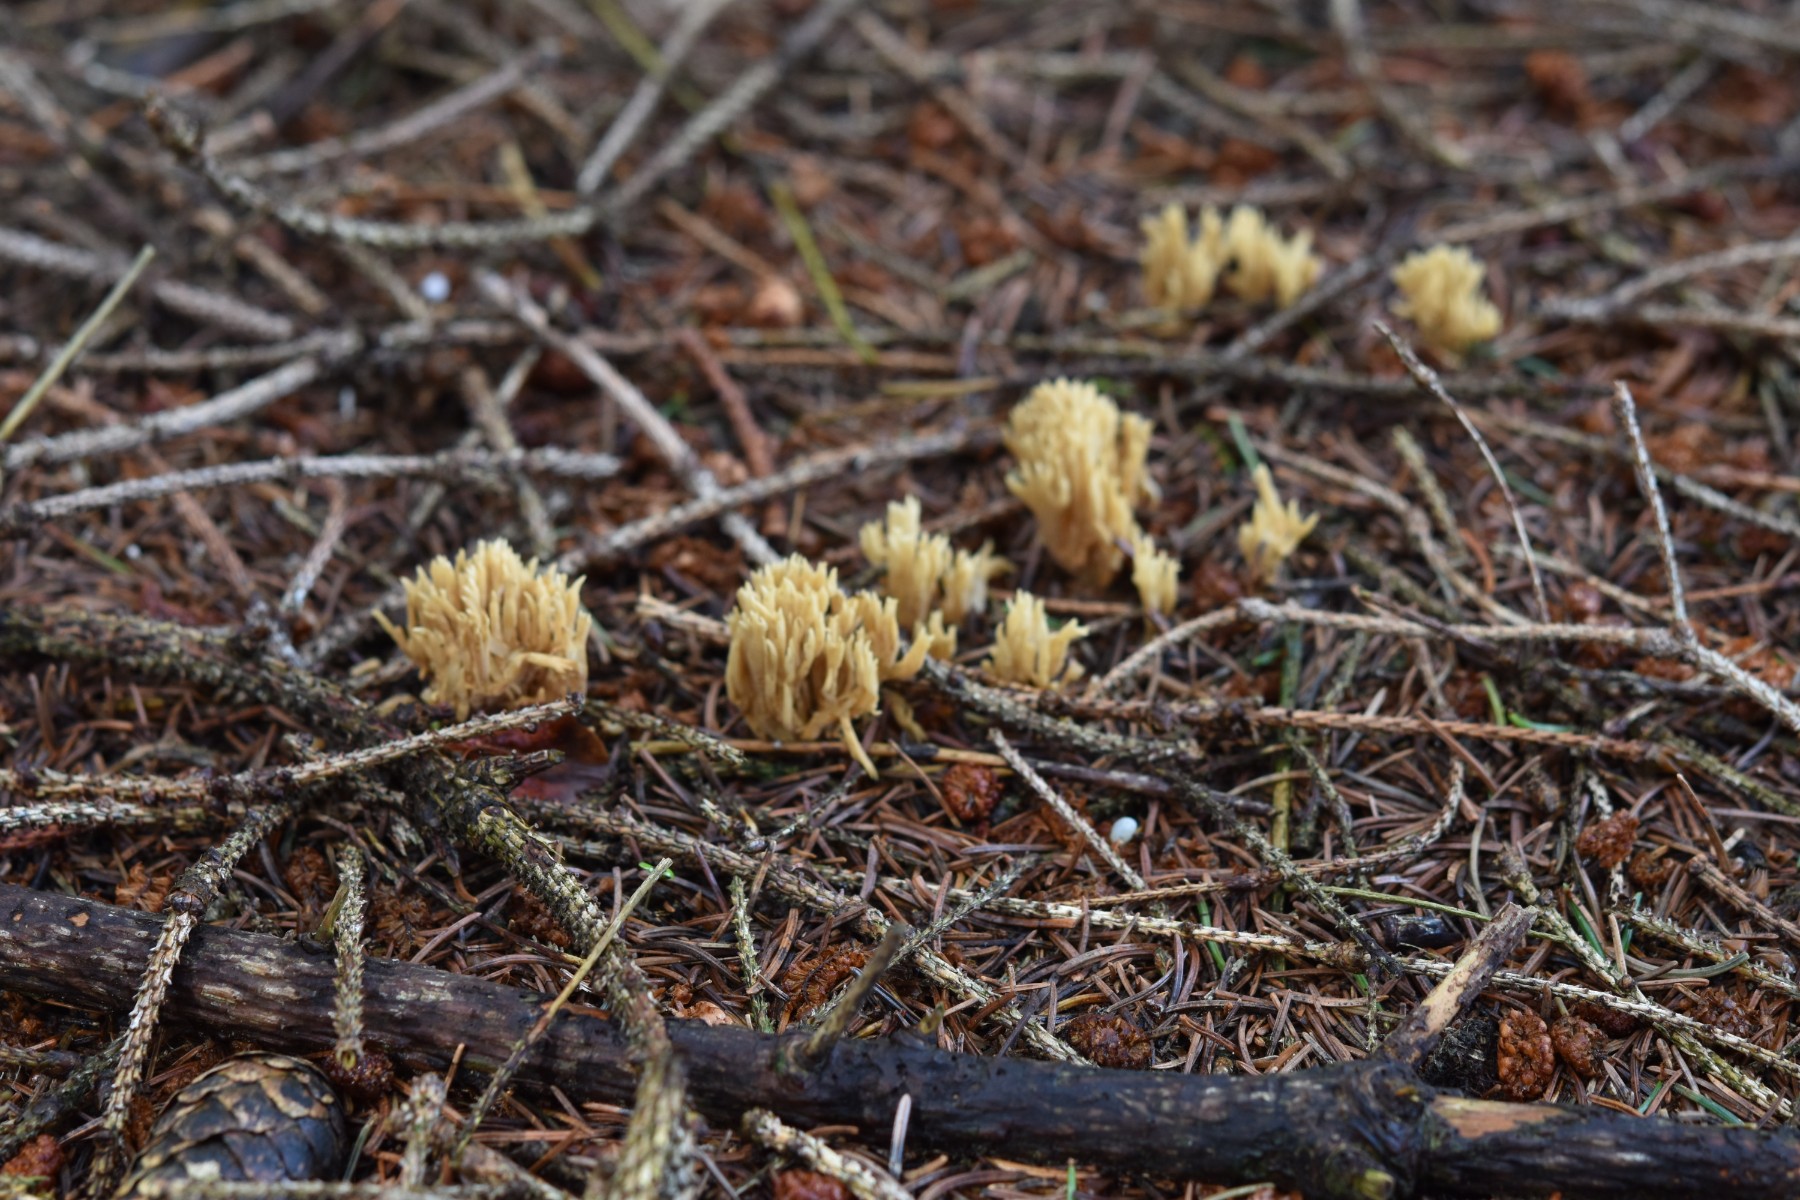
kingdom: Fungi
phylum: Basidiomycota
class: Agaricomycetes
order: Gomphales
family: Gomphaceae
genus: Phaeoclavulina
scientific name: Phaeoclavulina eumorpha
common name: gran-koralsvamp
